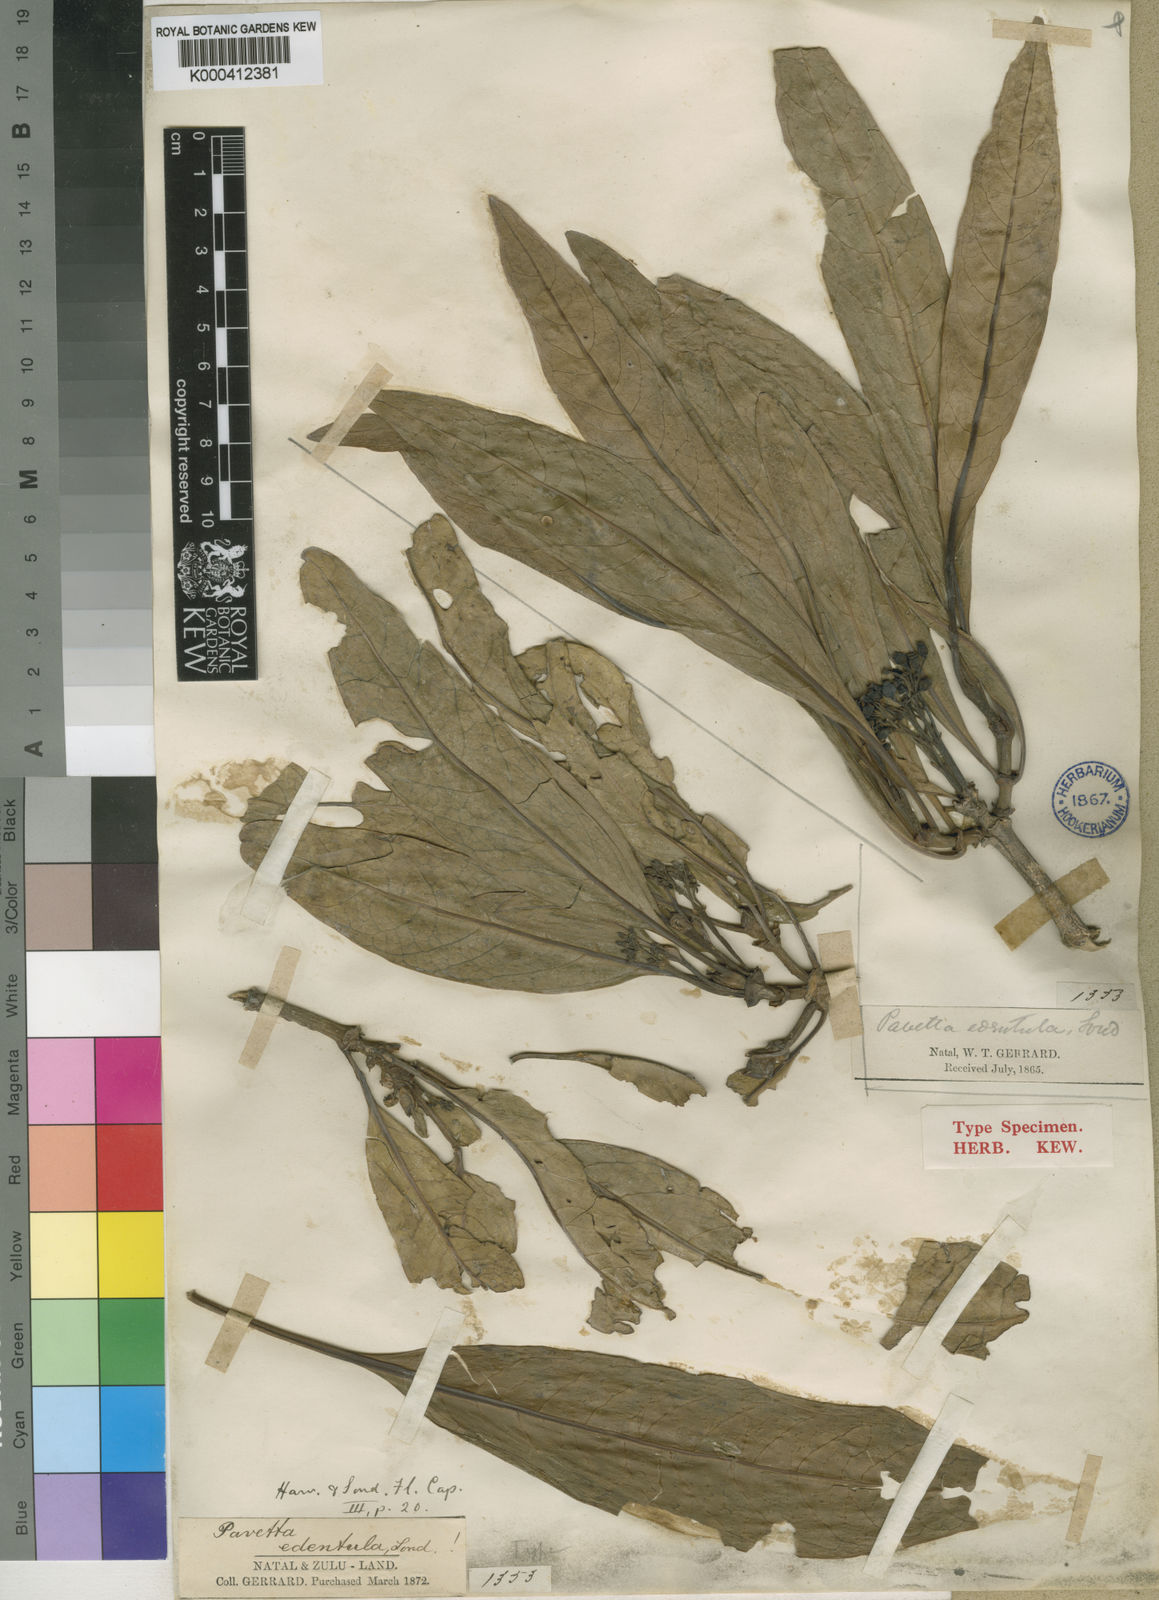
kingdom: Plantae
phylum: Tracheophyta
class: Magnoliopsida
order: Gentianales
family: Rubiaceae
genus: Pavetta
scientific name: Pavetta
